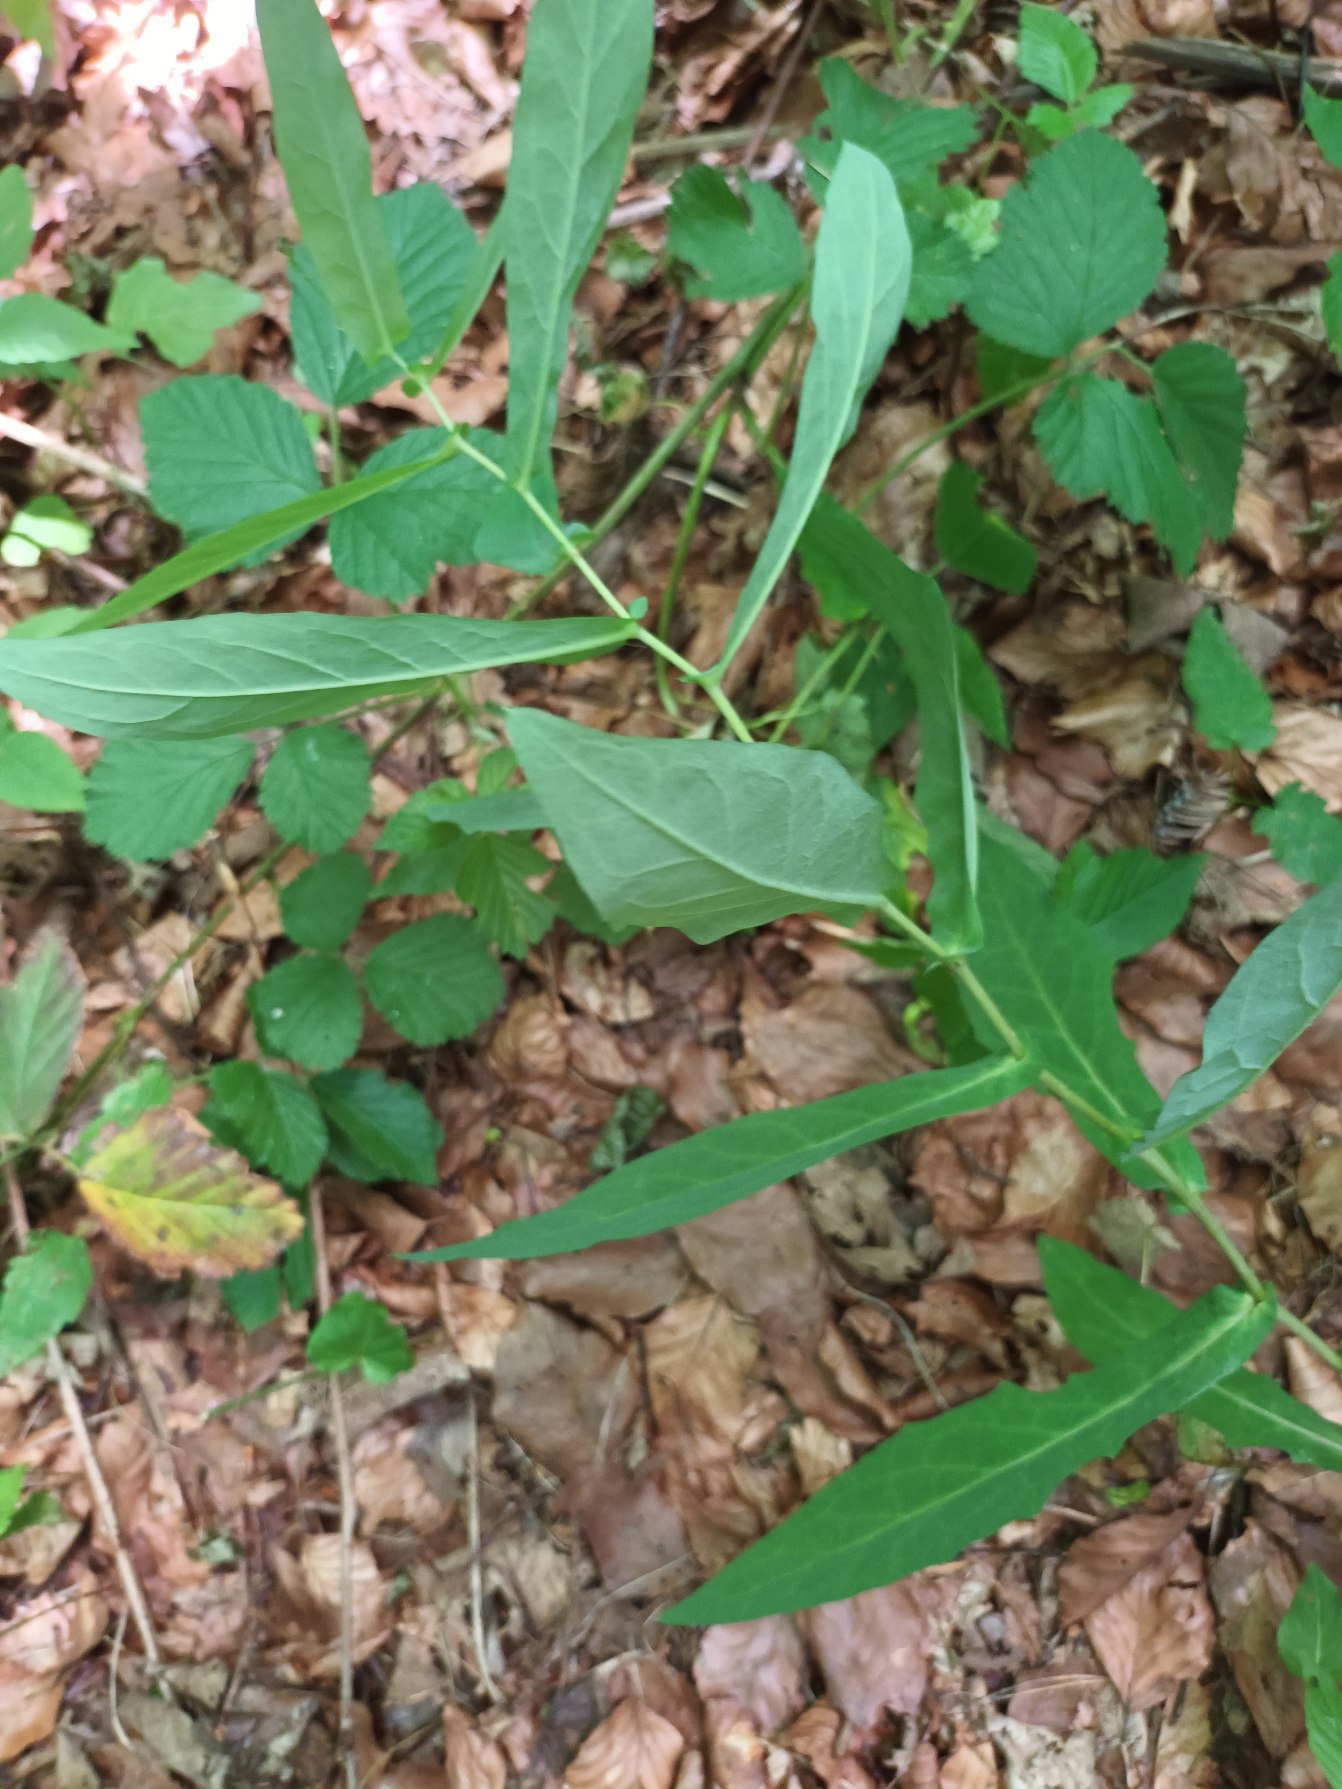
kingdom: Plantae
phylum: Tracheophyta
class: Magnoliopsida
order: Asterales
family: Asteraceae
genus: Prenanthes
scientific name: Prenanthes purpurea
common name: Hængekurv
